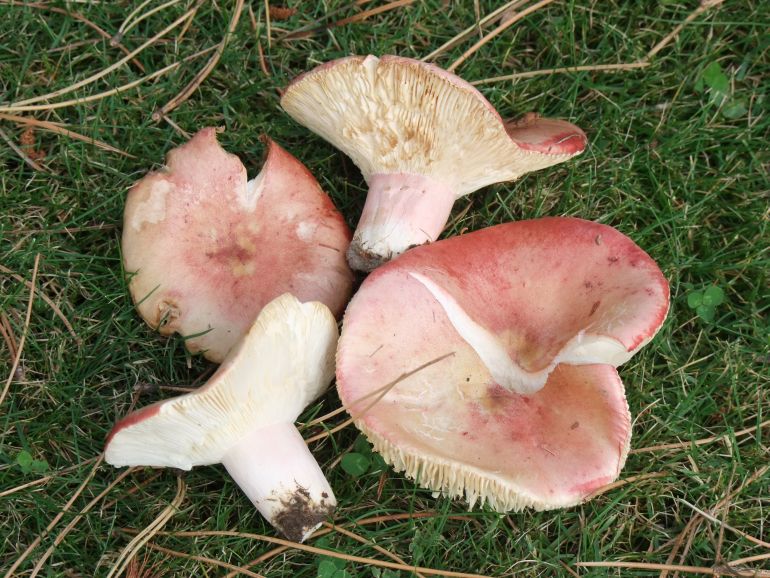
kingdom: Fungi
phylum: Basidiomycota
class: Agaricomycetes
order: Russulales
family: Russulaceae
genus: Russula
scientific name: Russula sanguinea
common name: blodrød skørhat
